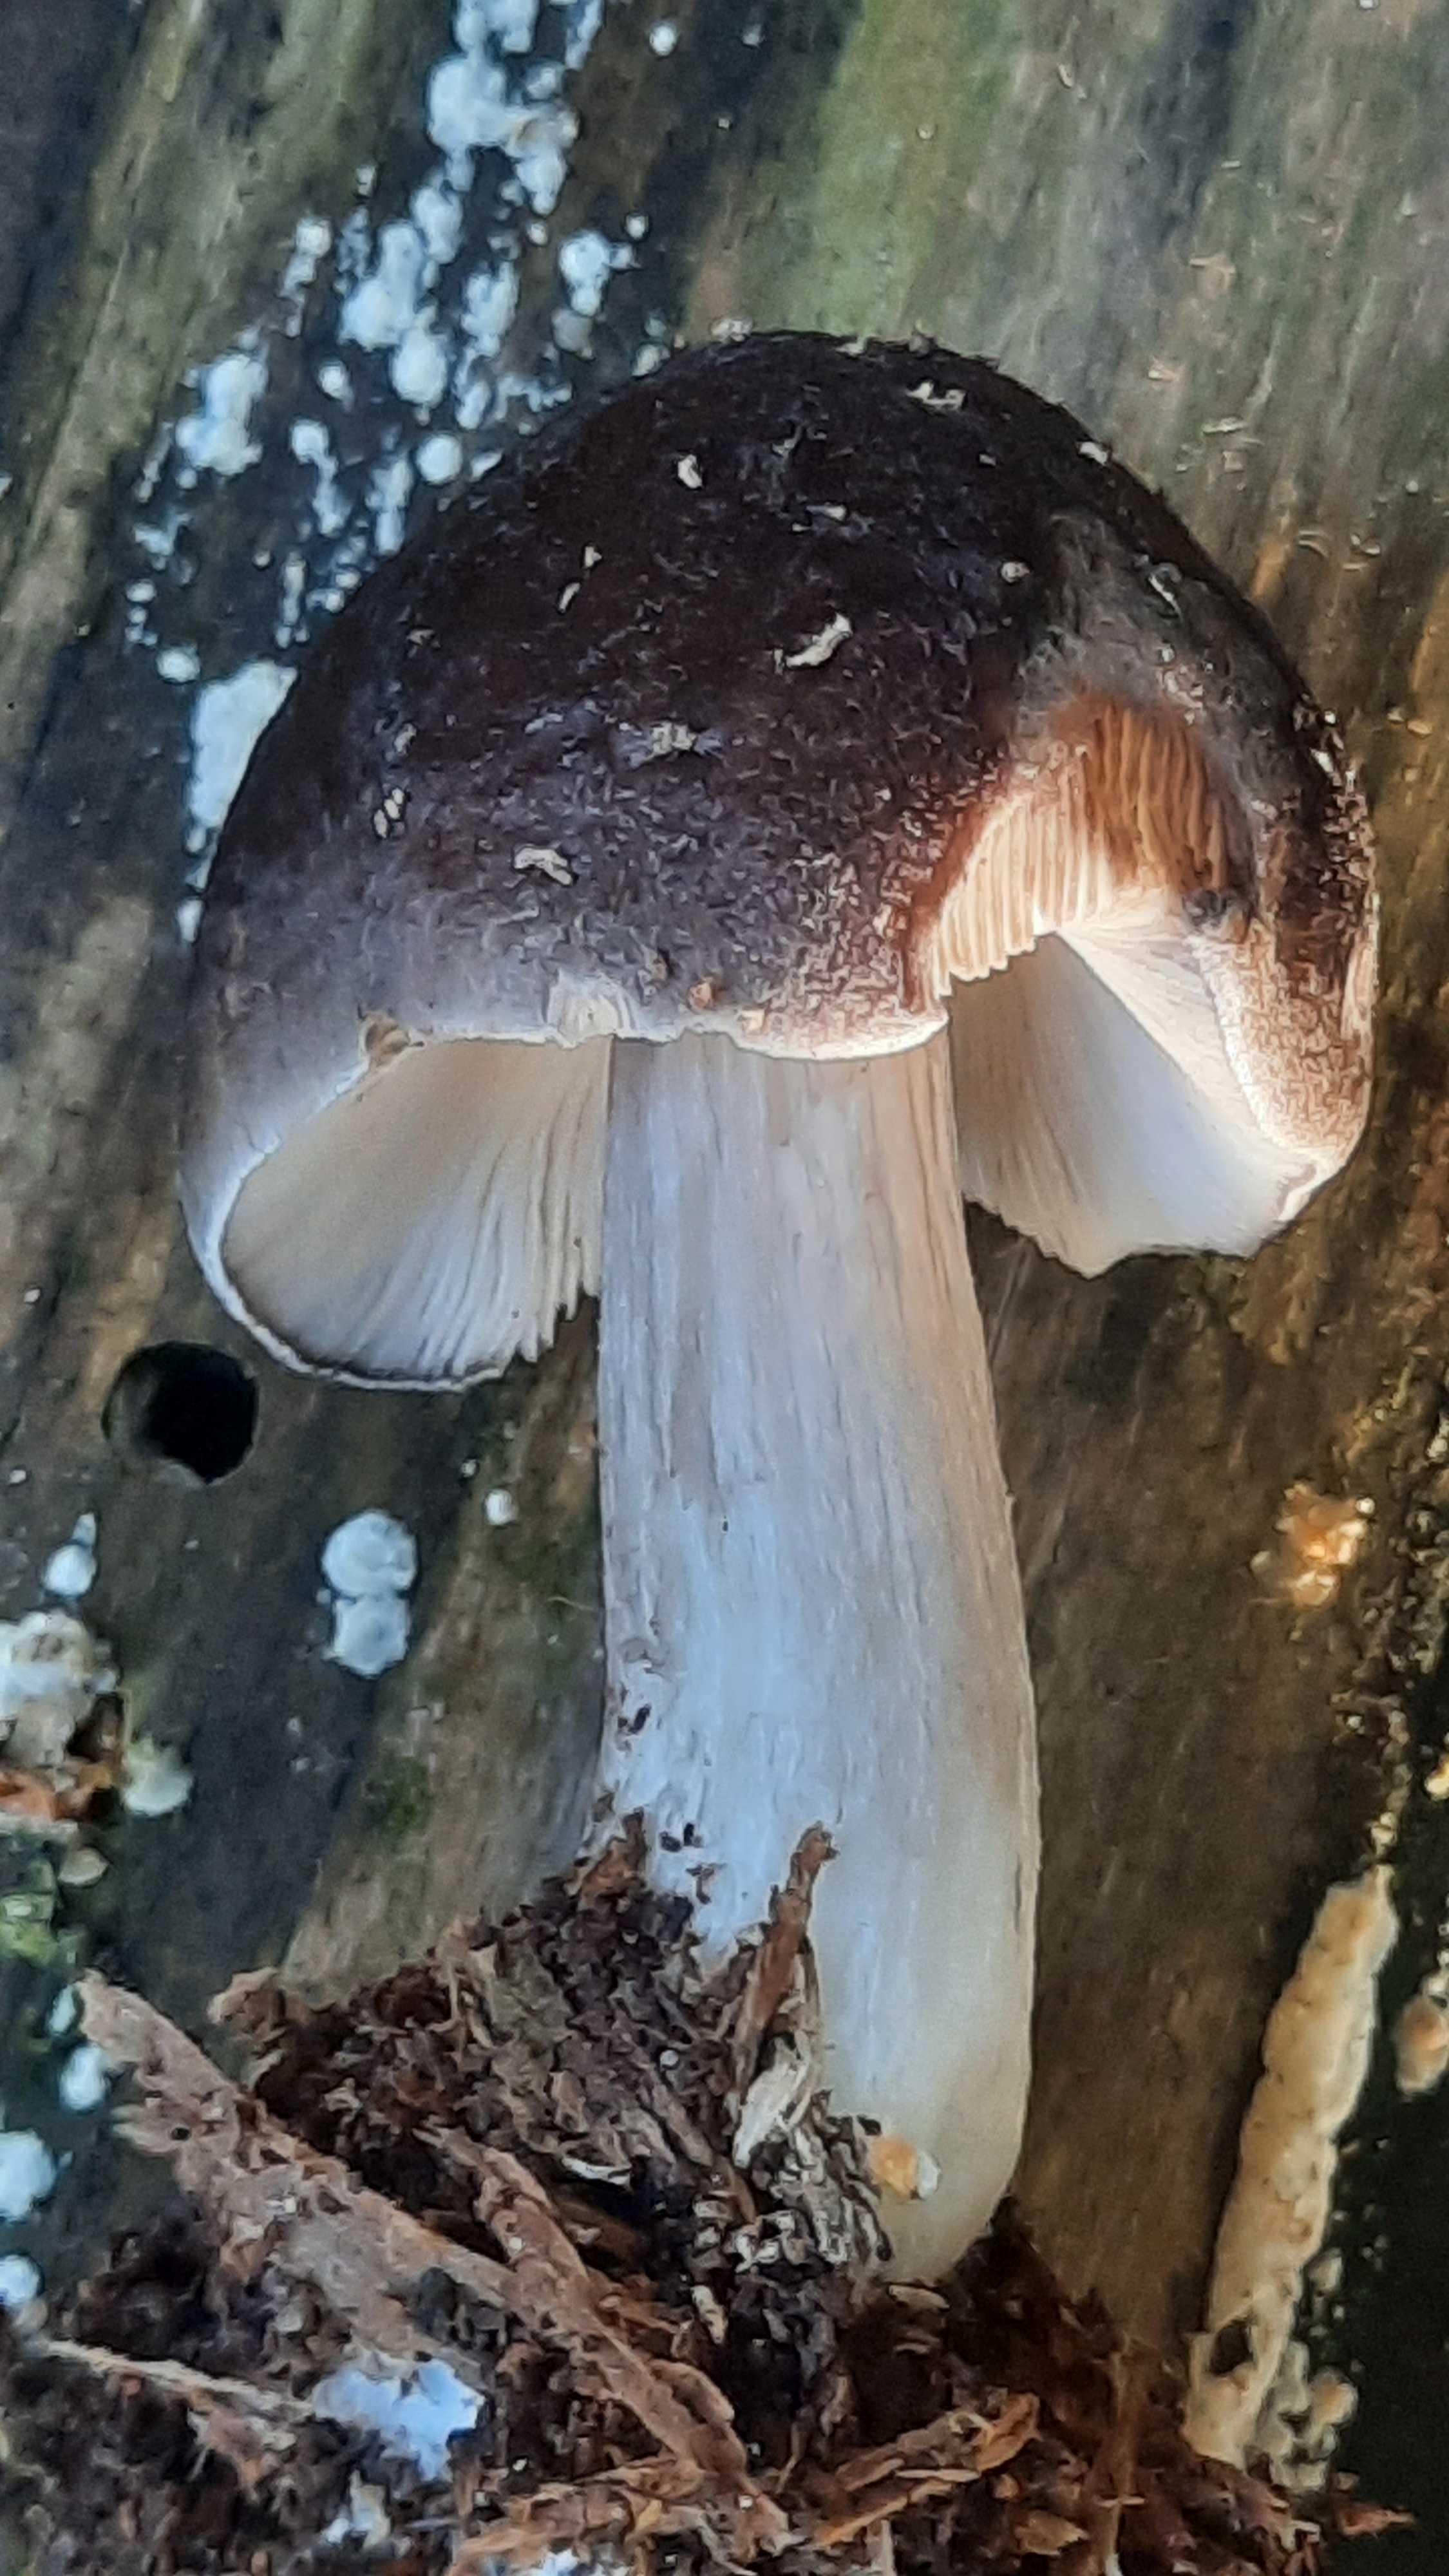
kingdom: Fungi
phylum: Basidiomycota
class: Agaricomycetes
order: Agaricales
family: Pluteaceae
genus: Pluteus
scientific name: Pluteus cervinus
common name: sodfarvet skærmhat
